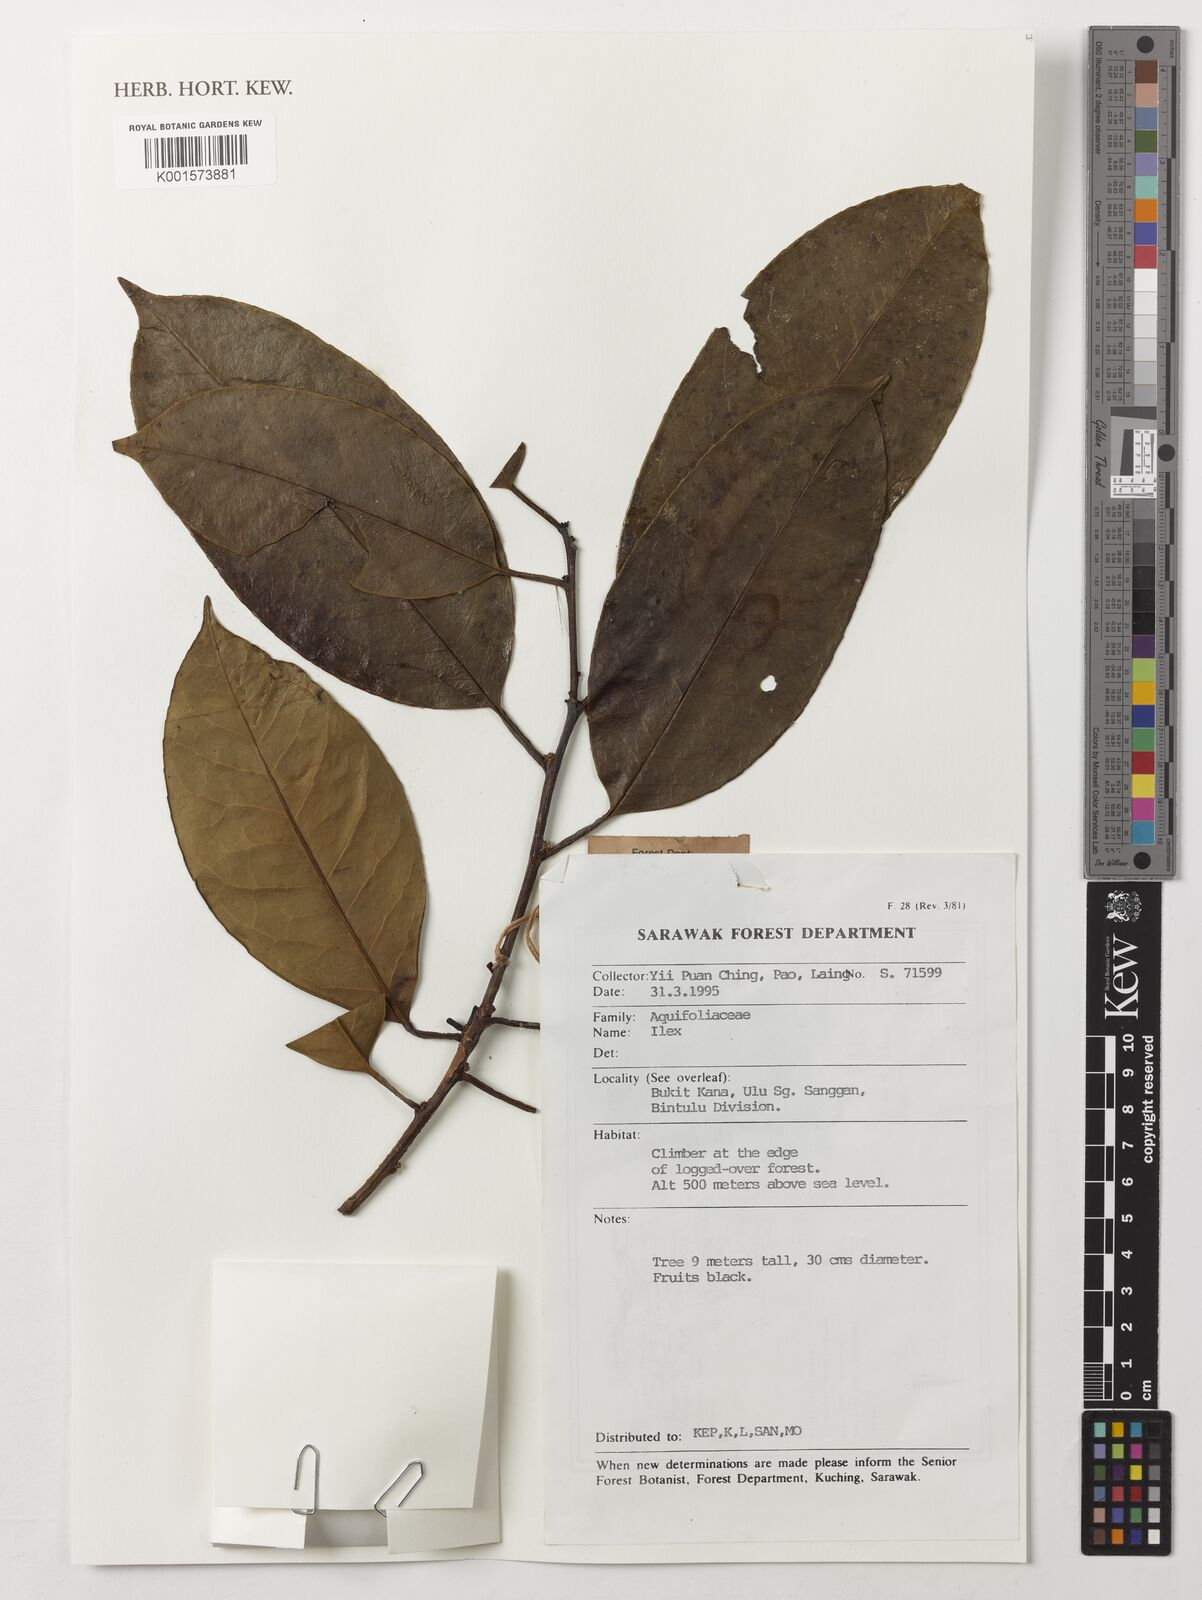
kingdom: Plantae
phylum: Tracheophyta
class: Magnoliopsida
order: Aquifoliales
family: Aquifoliaceae
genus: Ilex
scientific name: Ilex
